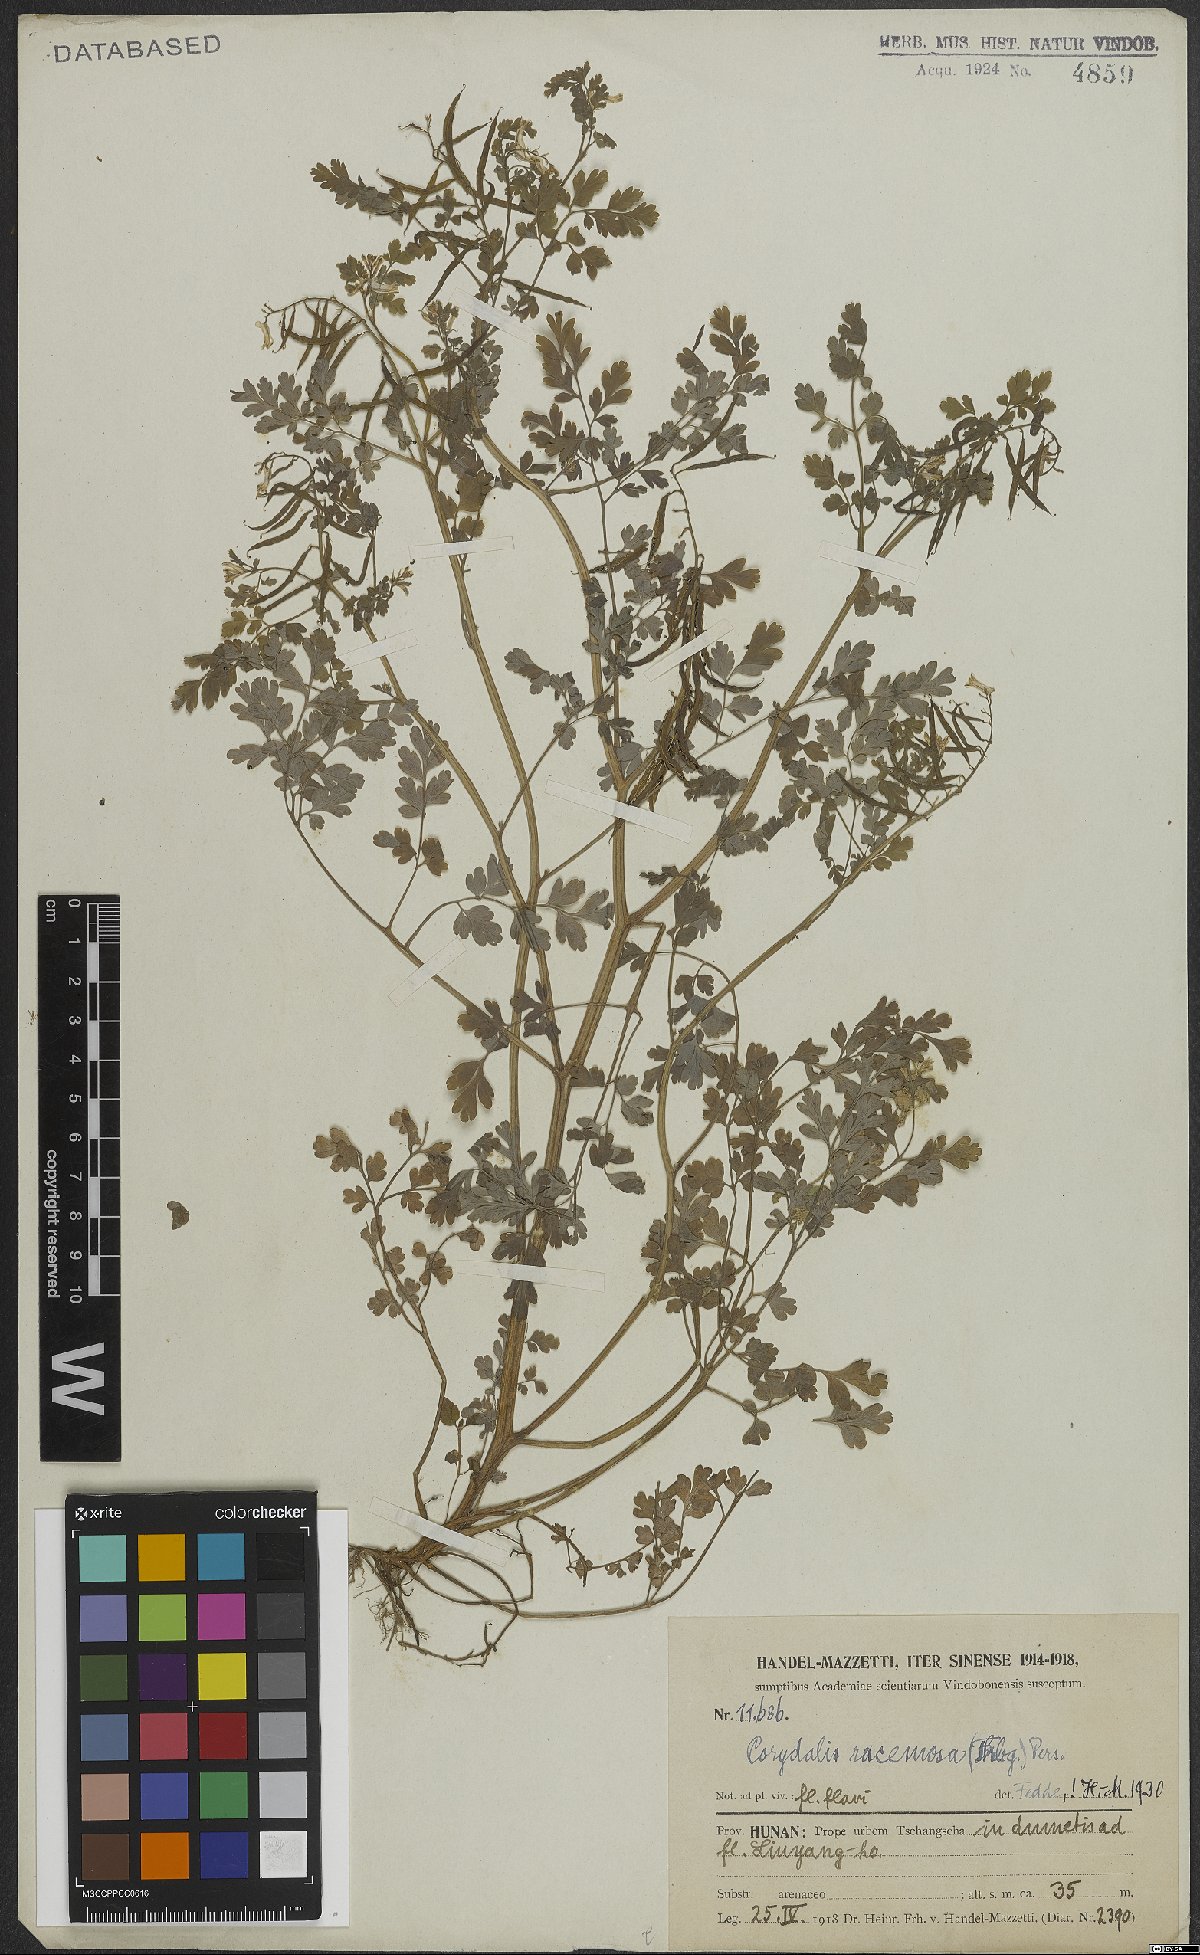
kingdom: Plantae
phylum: Tracheophyta
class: Magnoliopsida
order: Ranunculales
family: Papaveraceae
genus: Corydalis
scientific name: Corydalis racemosa
